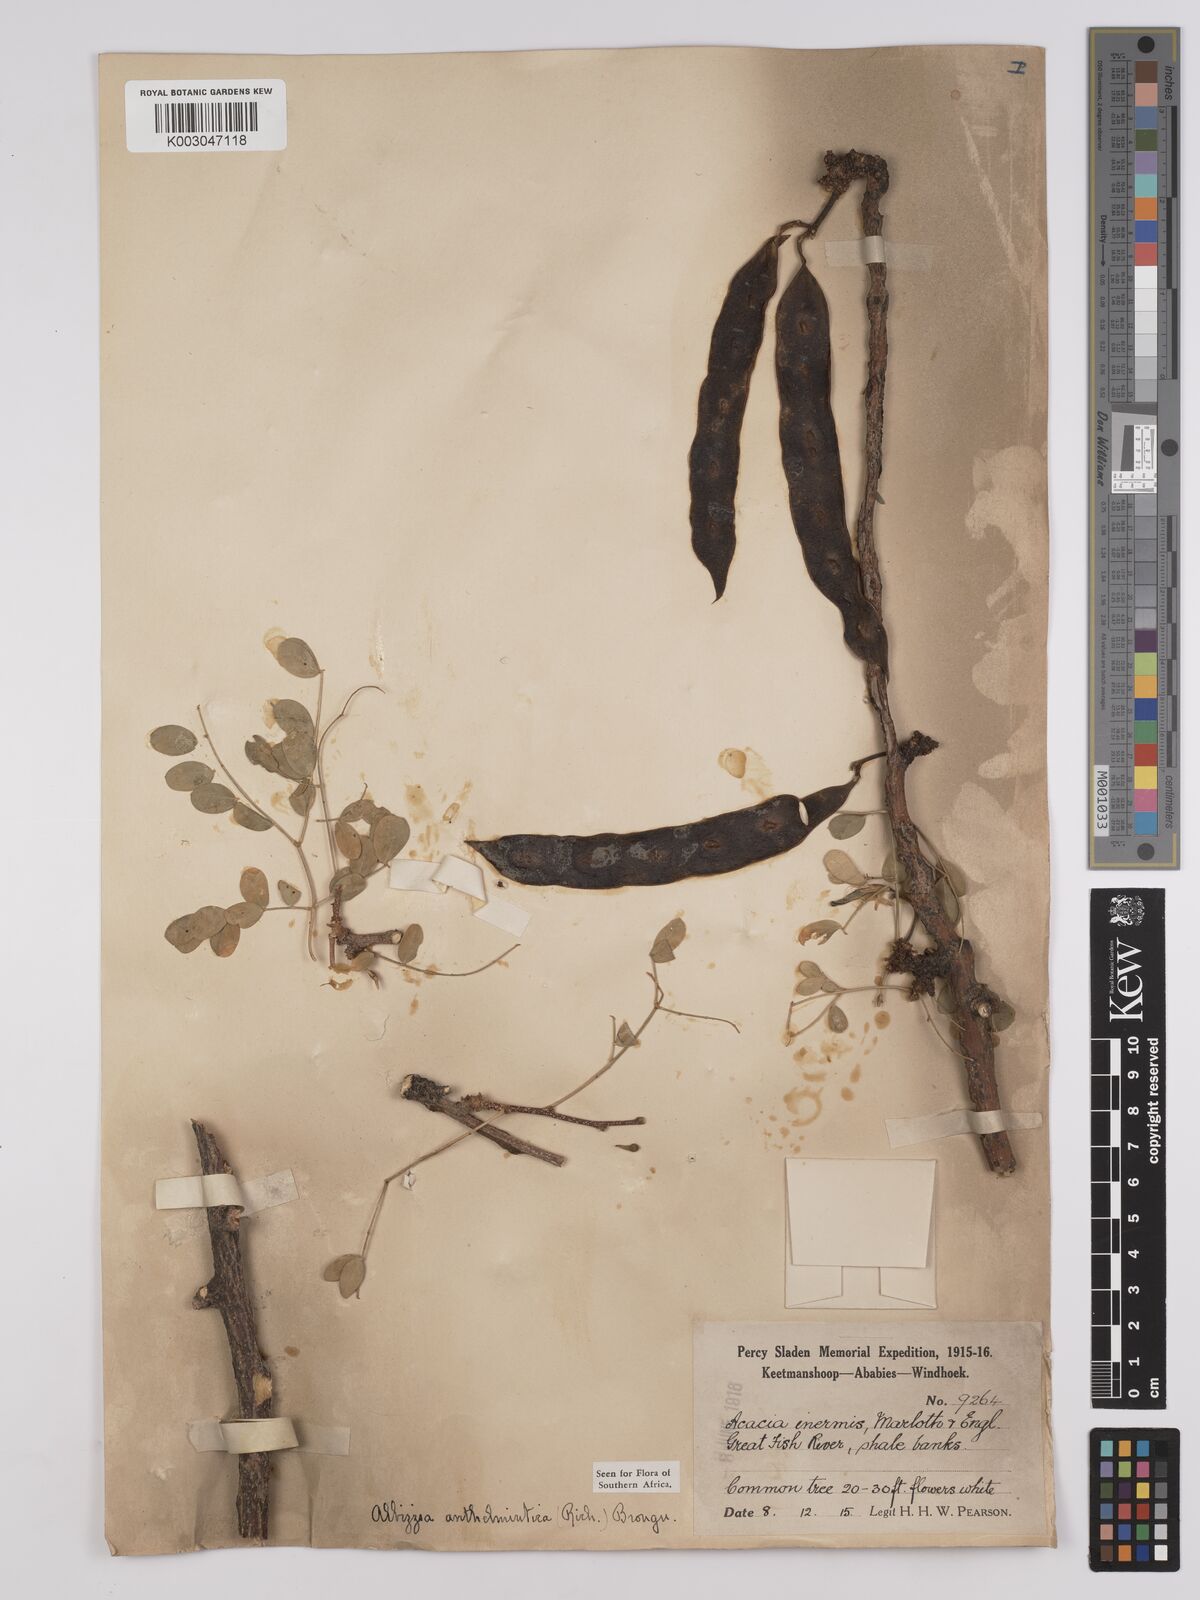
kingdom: Plantae
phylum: Tracheophyta
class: Magnoliopsida
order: Fabales
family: Fabaceae
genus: Albizia
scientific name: Albizia anthelmintica
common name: Worm-bark false-thorn
